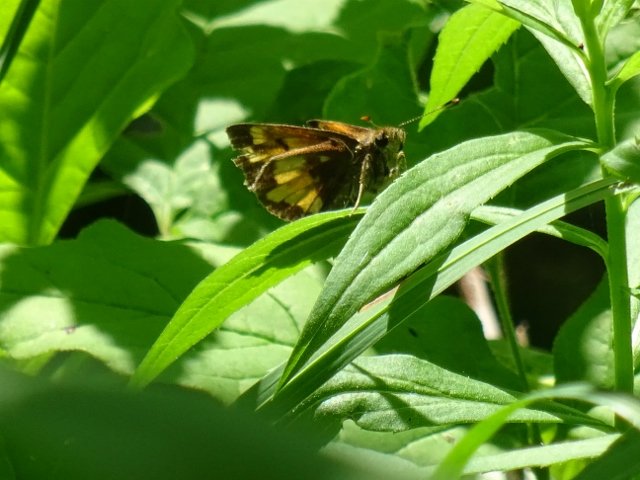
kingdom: Animalia
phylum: Arthropoda
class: Insecta
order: Lepidoptera
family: Hesperiidae
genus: Lon
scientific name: Lon hobomok
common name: Hobomok Skipper
